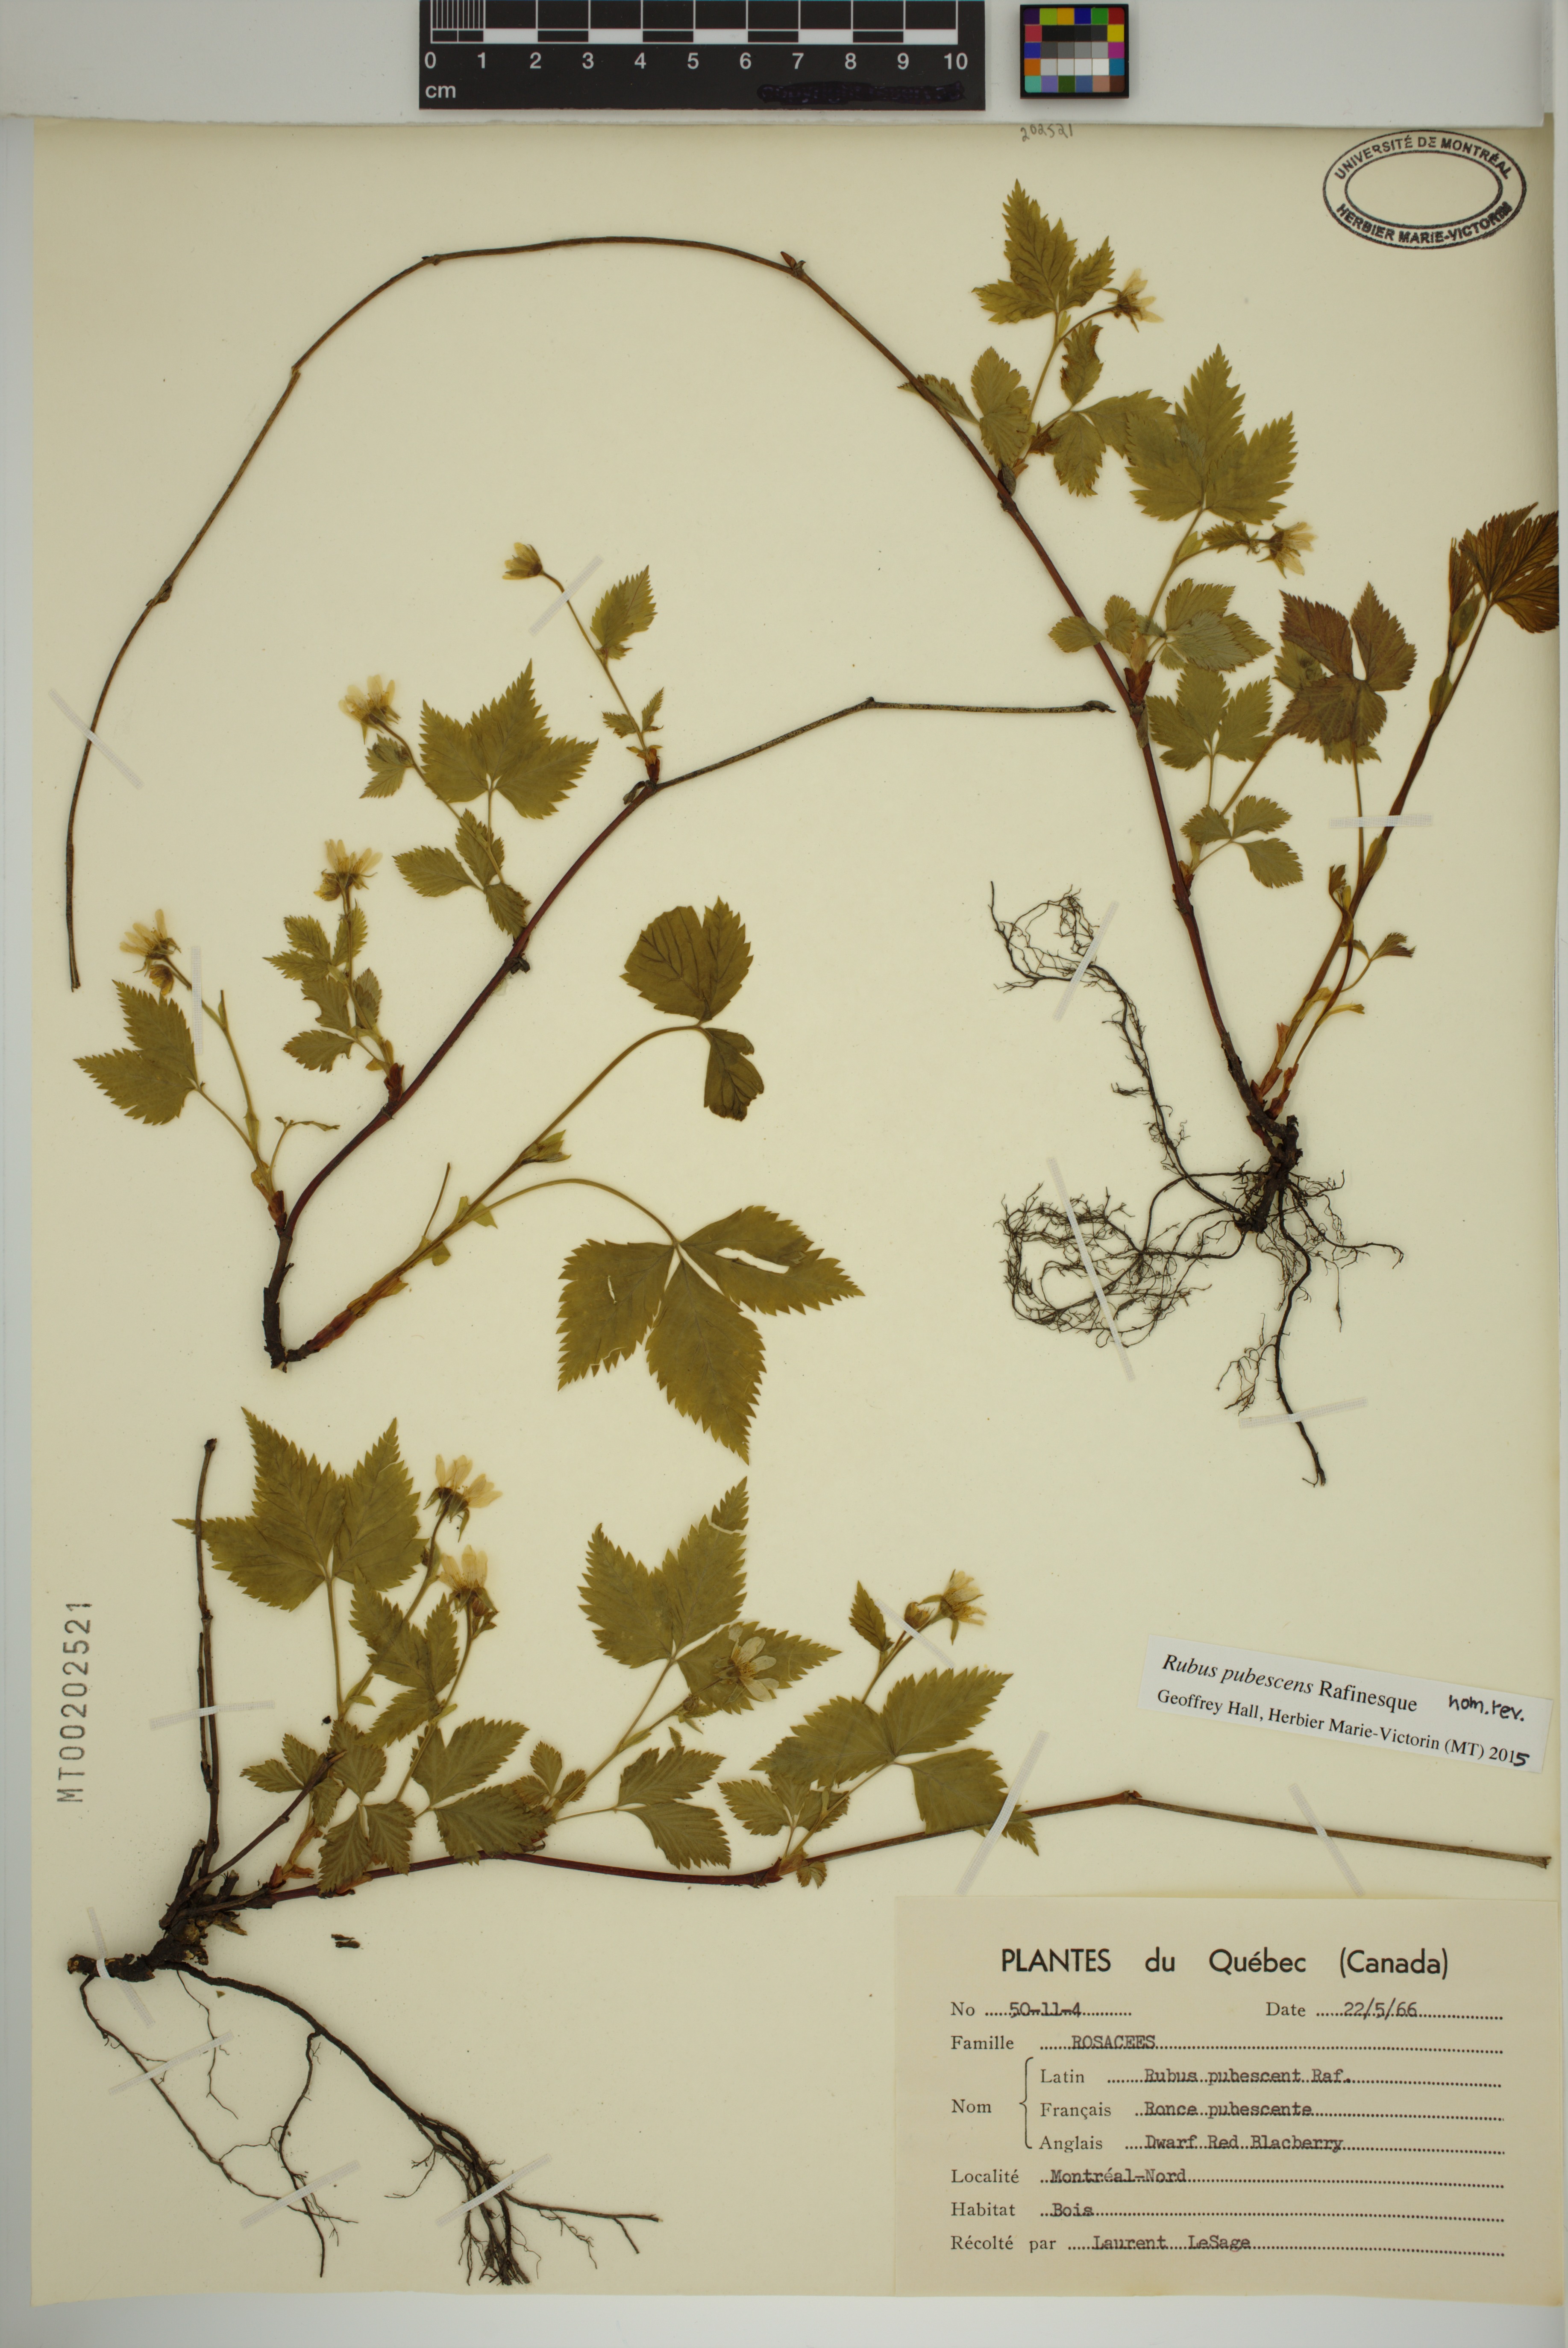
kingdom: Plantae
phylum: Tracheophyta
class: Magnoliopsida
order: Rosales
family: Rosaceae
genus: Rubus
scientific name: Rubus pubescens
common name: Dwarf raspberry
